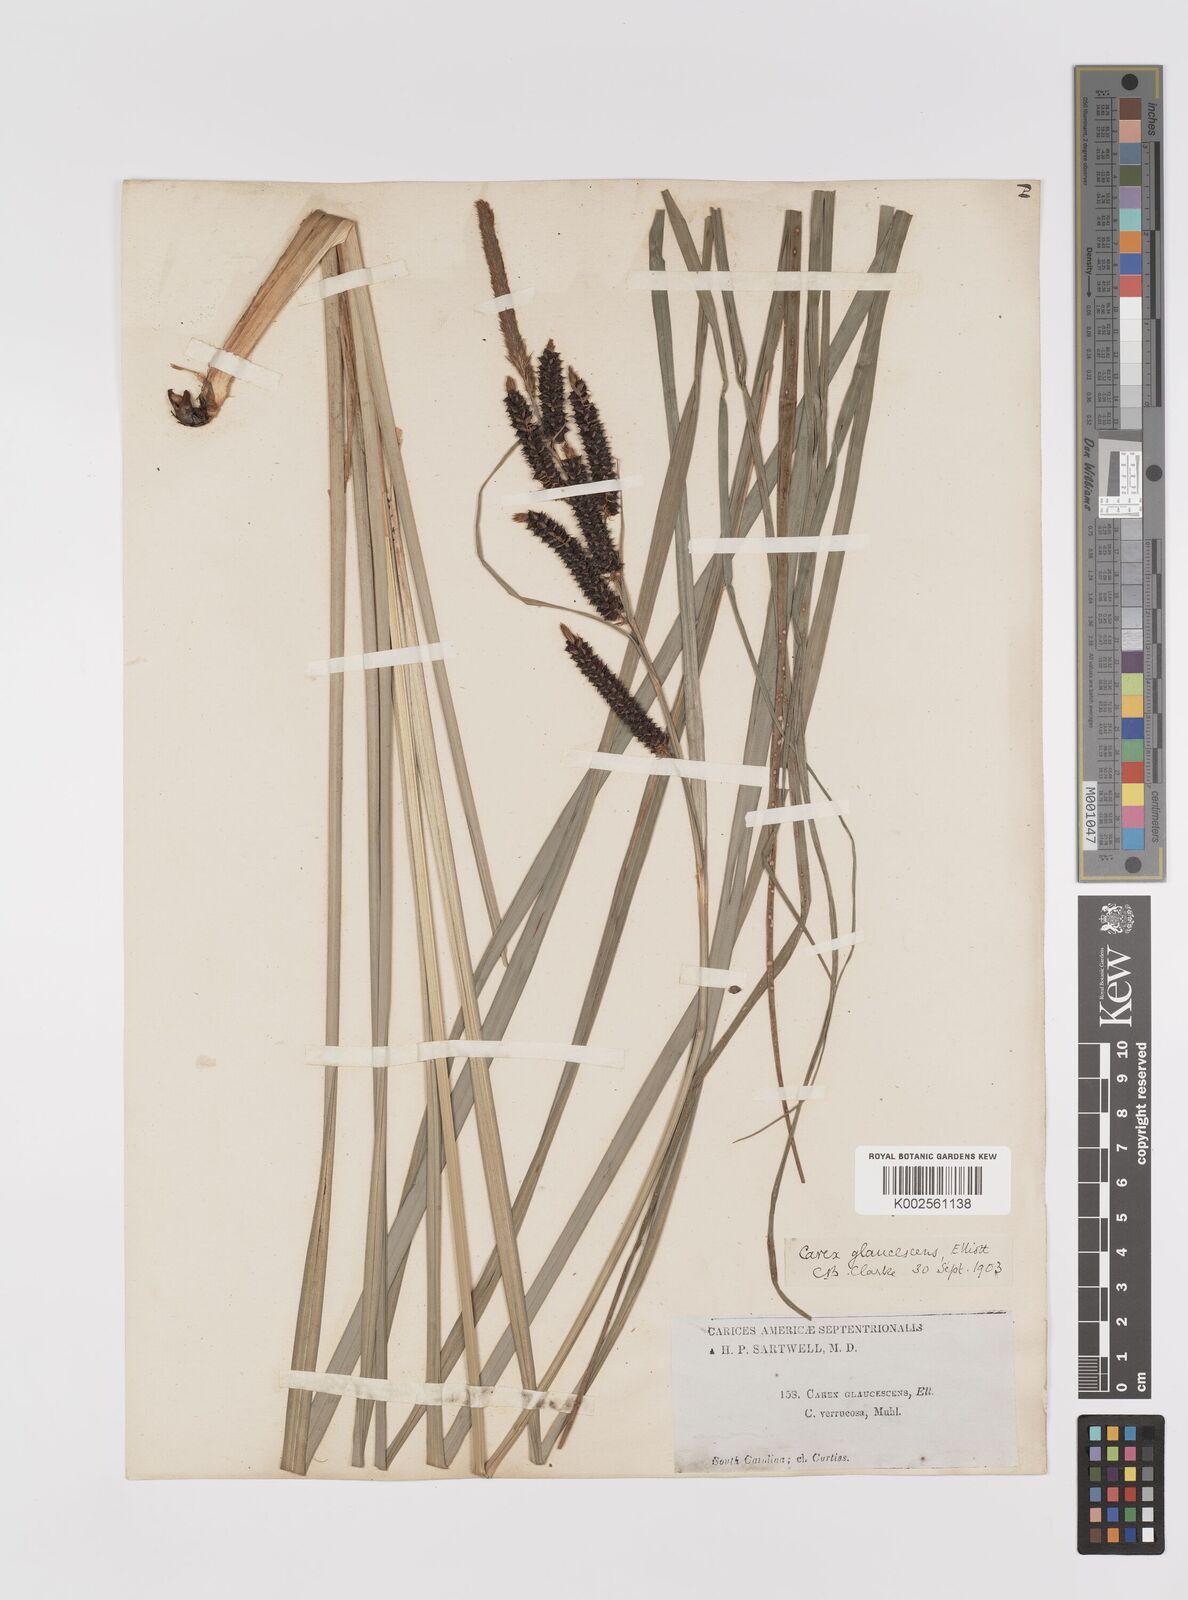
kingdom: Plantae
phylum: Tracheophyta
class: Liliopsida
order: Poales
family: Cyperaceae
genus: Carex
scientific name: Carex glaucescens
